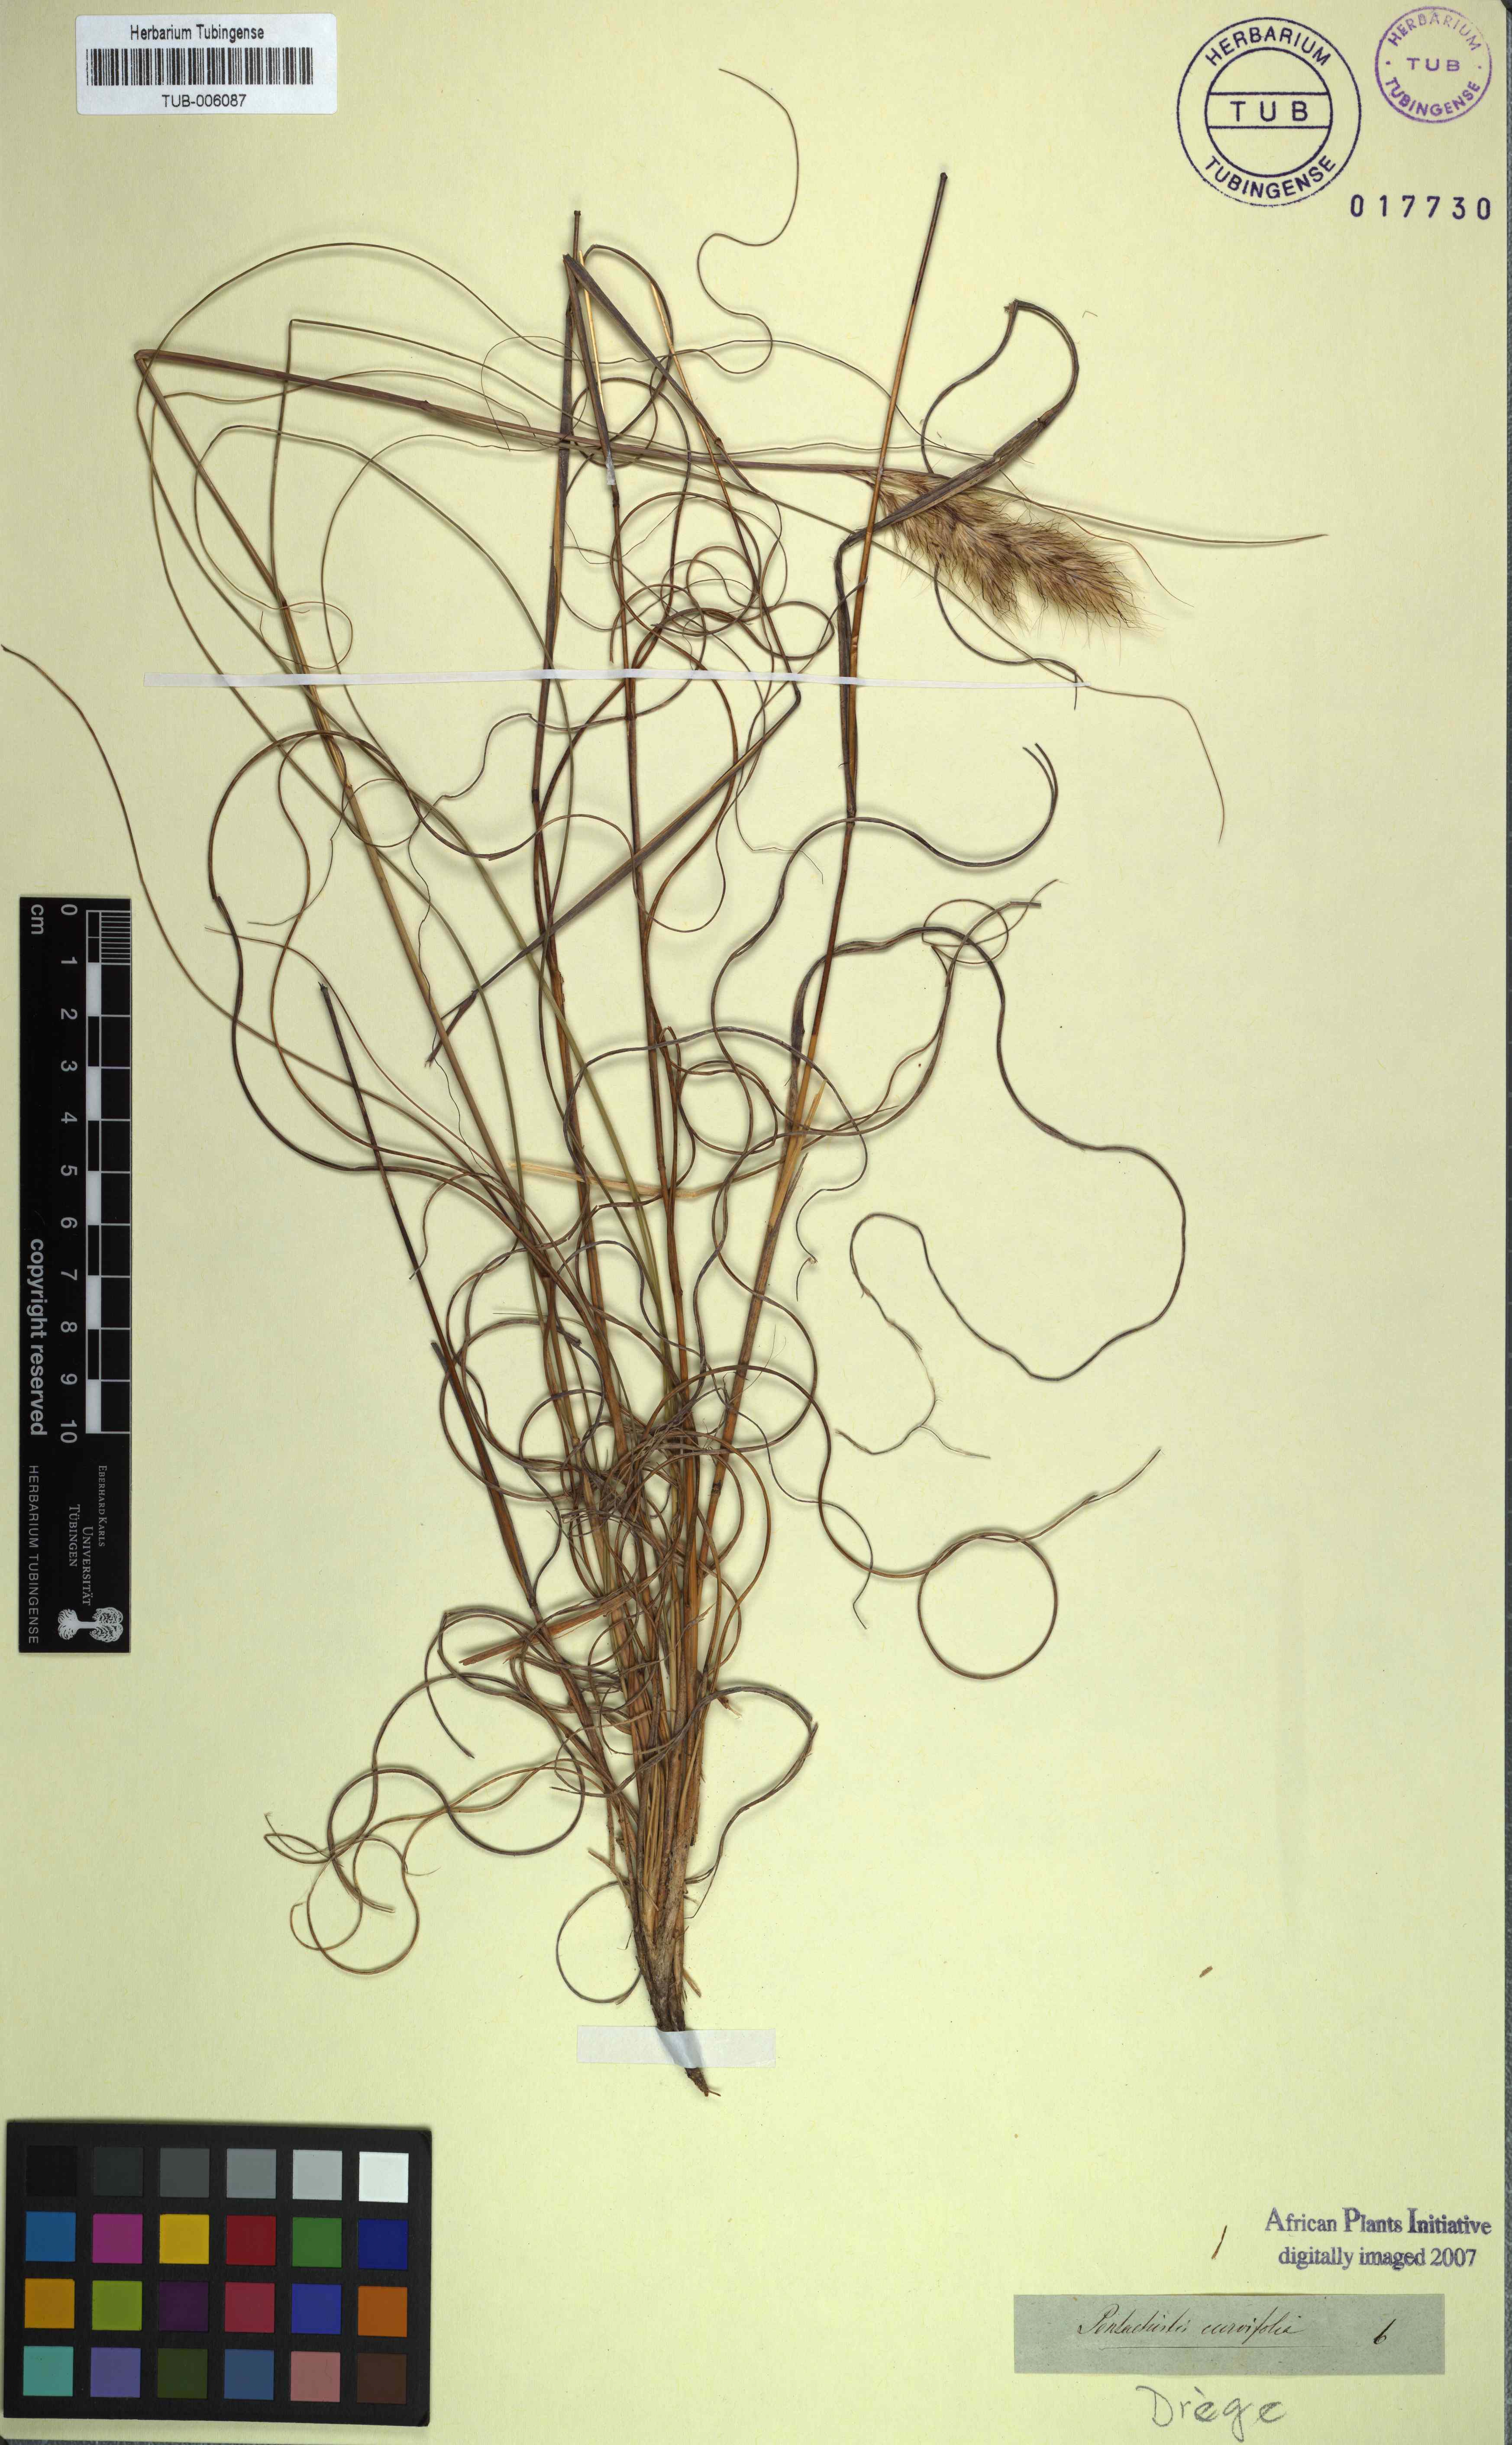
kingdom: Plantae
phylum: Tracheophyta
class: Liliopsida
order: Poales
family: Poaceae
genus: Pentameris
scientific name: Pentameris curvifolia
